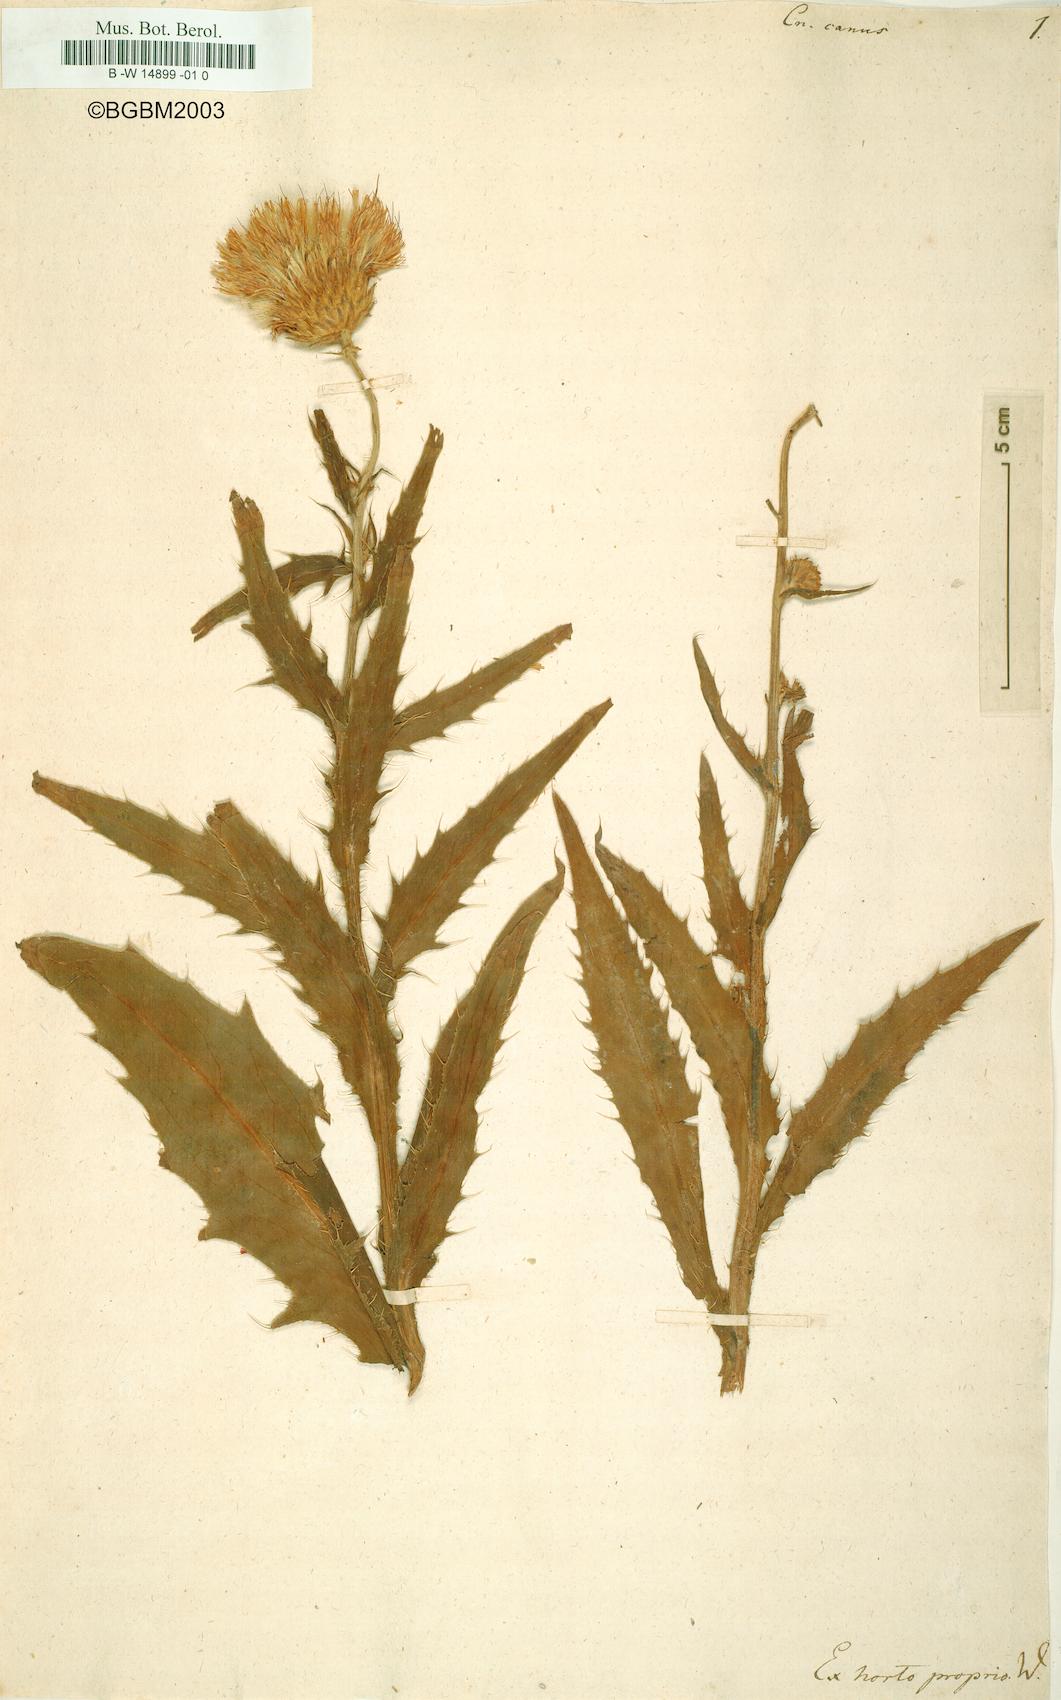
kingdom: Plantae
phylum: Tracheophyta
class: Magnoliopsida
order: Asterales
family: Asteraceae
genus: Cirsium
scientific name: Cirsium canum
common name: Queen anne's thistle
